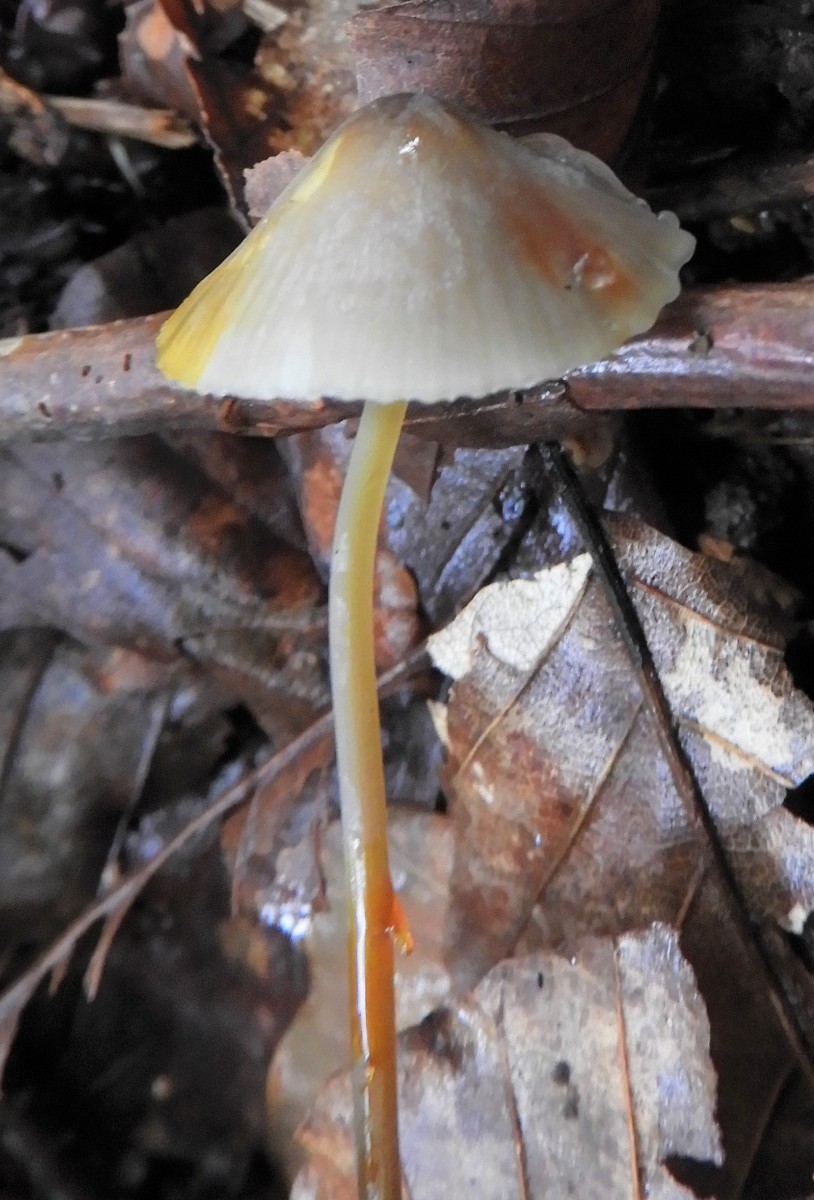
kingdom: Fungi
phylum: Basidiomycota
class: Agaricomycetes
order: Agaricales
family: Mycenaceae
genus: Mycena
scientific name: Mycena crocata
